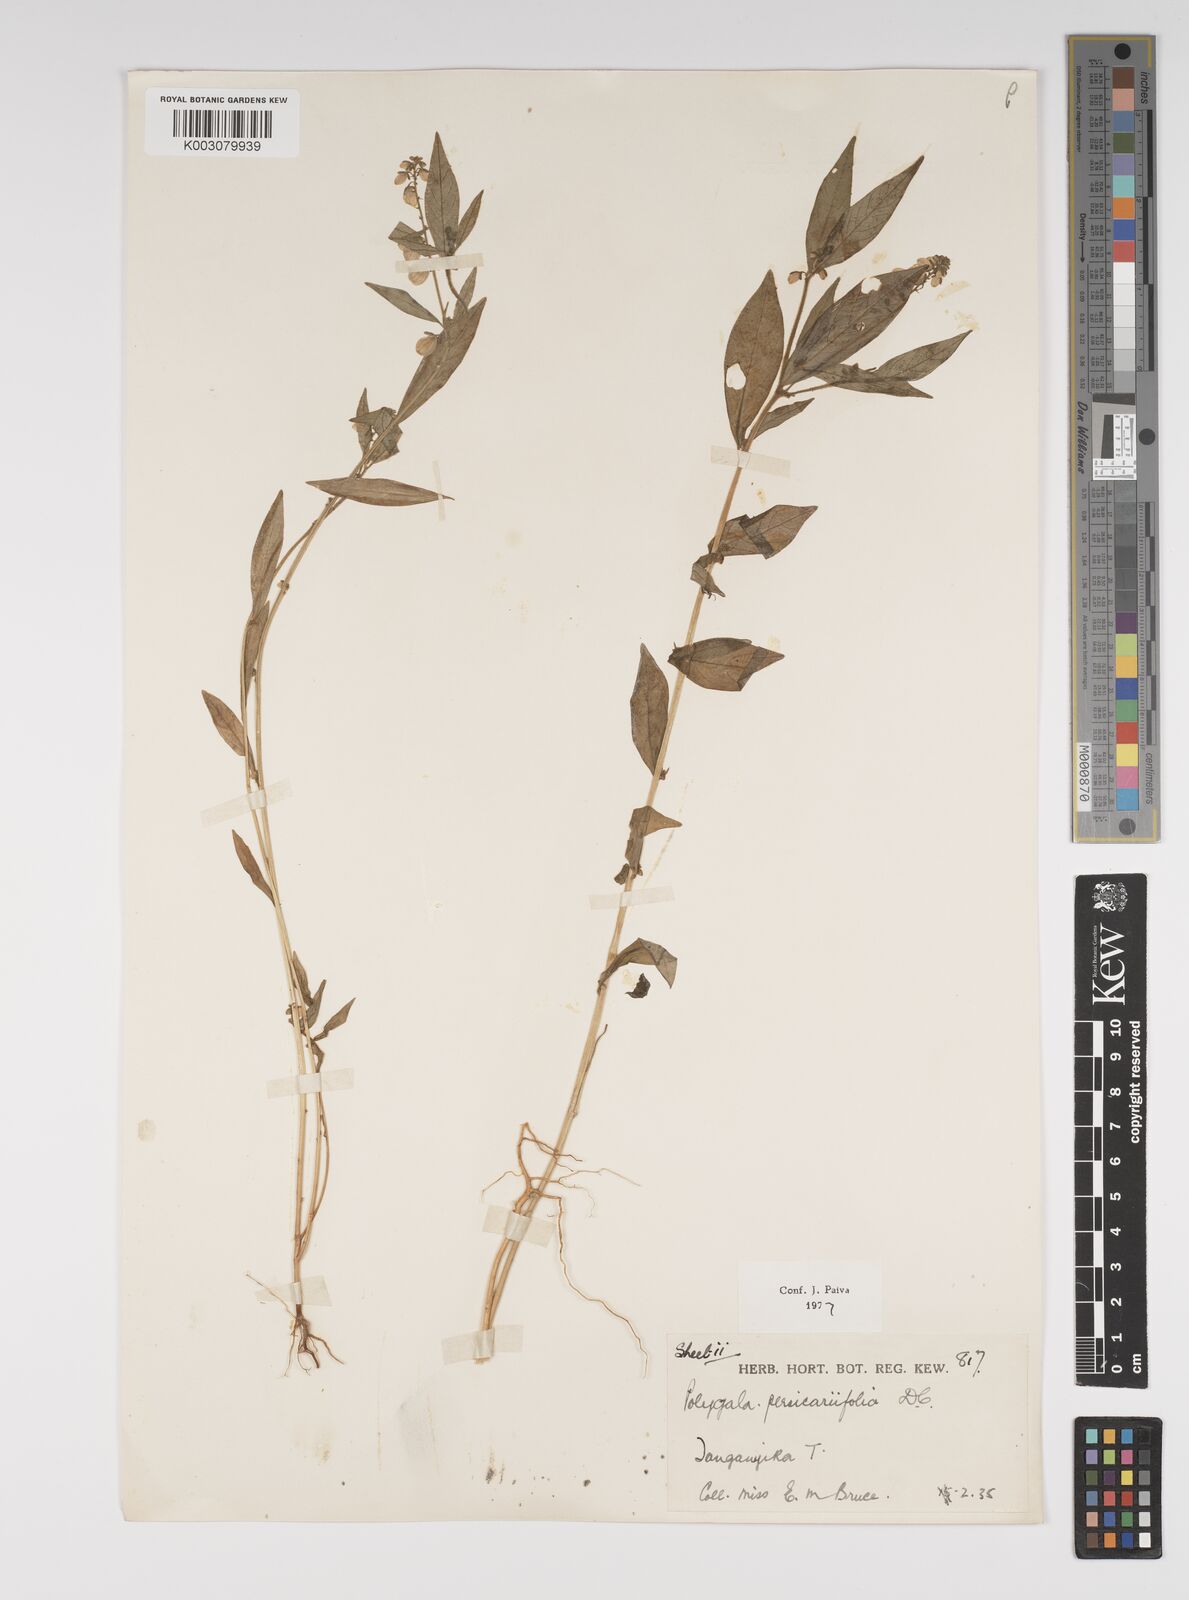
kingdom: Plantae
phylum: Tracheophyta
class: Magnoliopsida
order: Fabales
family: Polygalaceae
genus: Polygala
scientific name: Polygala persicariifolia
